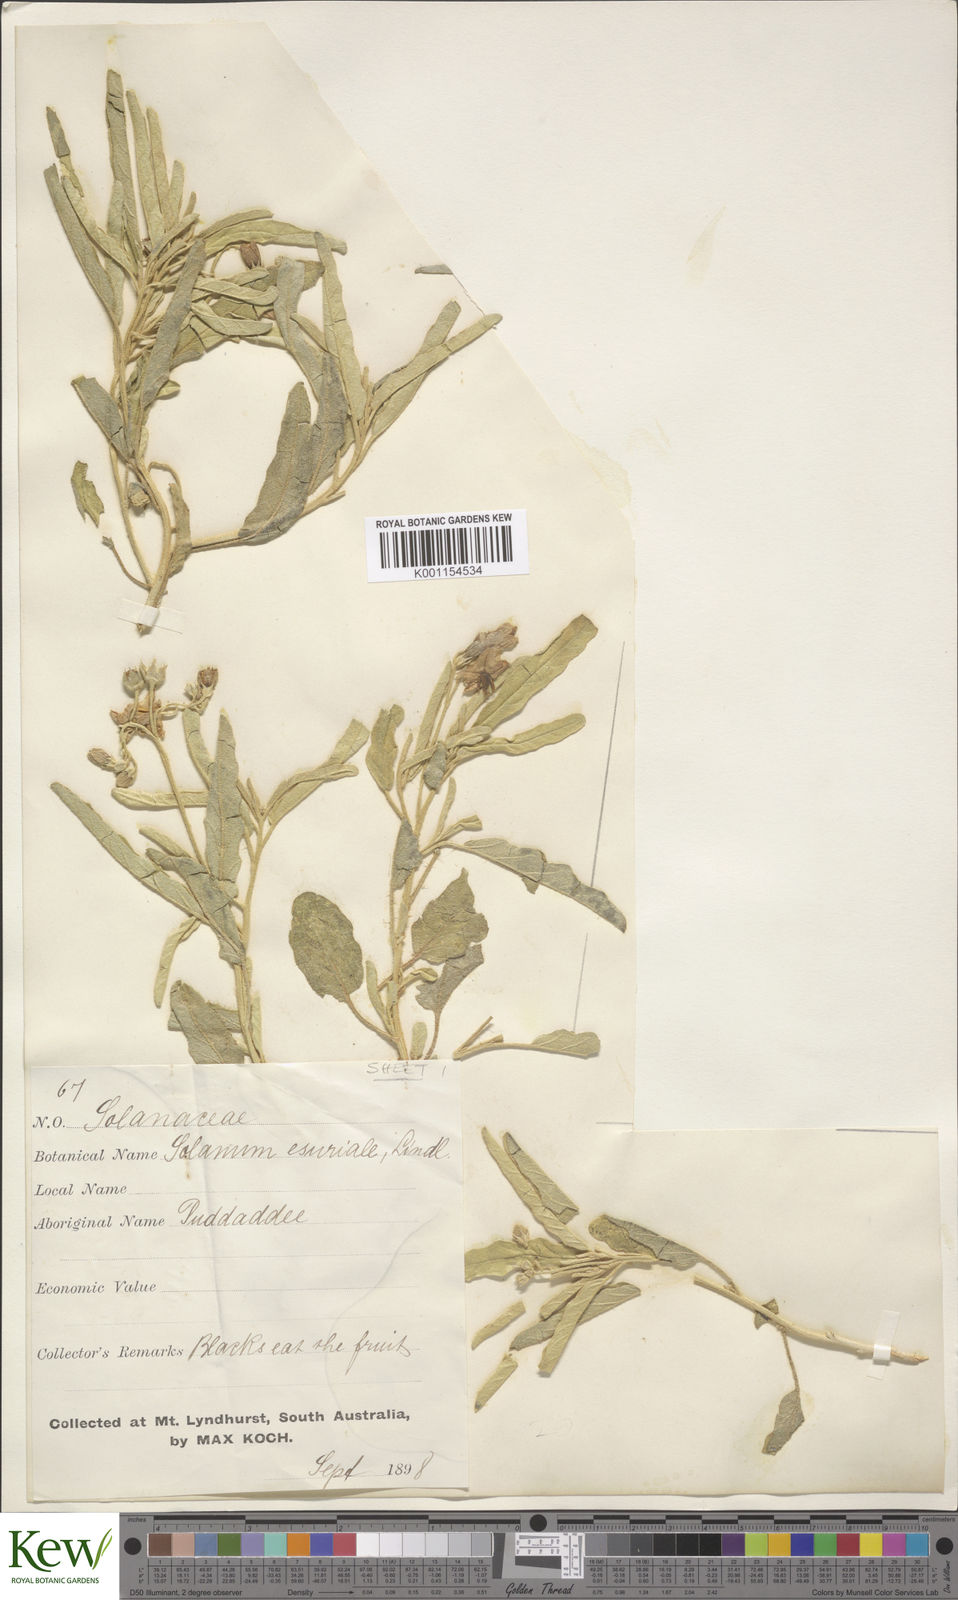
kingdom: Plantae
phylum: Tracheophyta
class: Magnoliopsida
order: Solanales
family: Solanaceae
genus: Solanum
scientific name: Solanum esuriale
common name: Wild tomato
